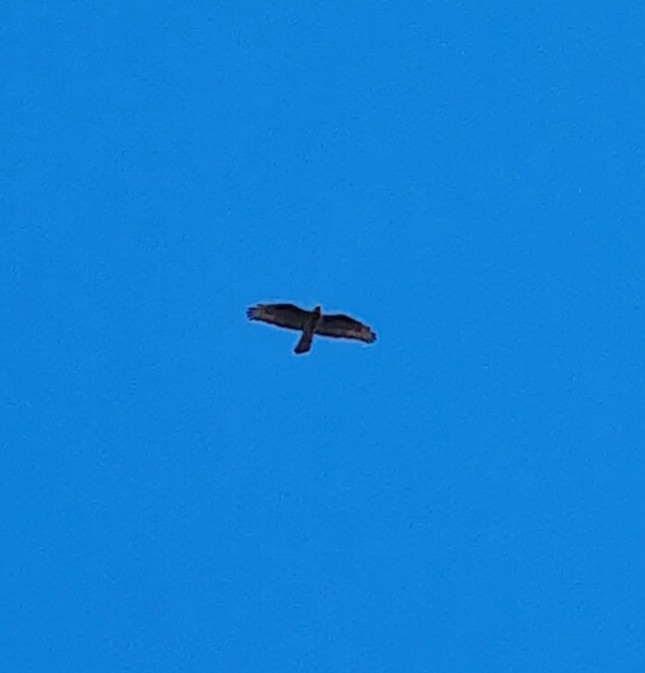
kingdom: Animalia
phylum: Chordata
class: Aves
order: Accipitriformes
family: Accipitridae
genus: Pernis
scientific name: Pernis apivorus
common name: Hvepsevåge
